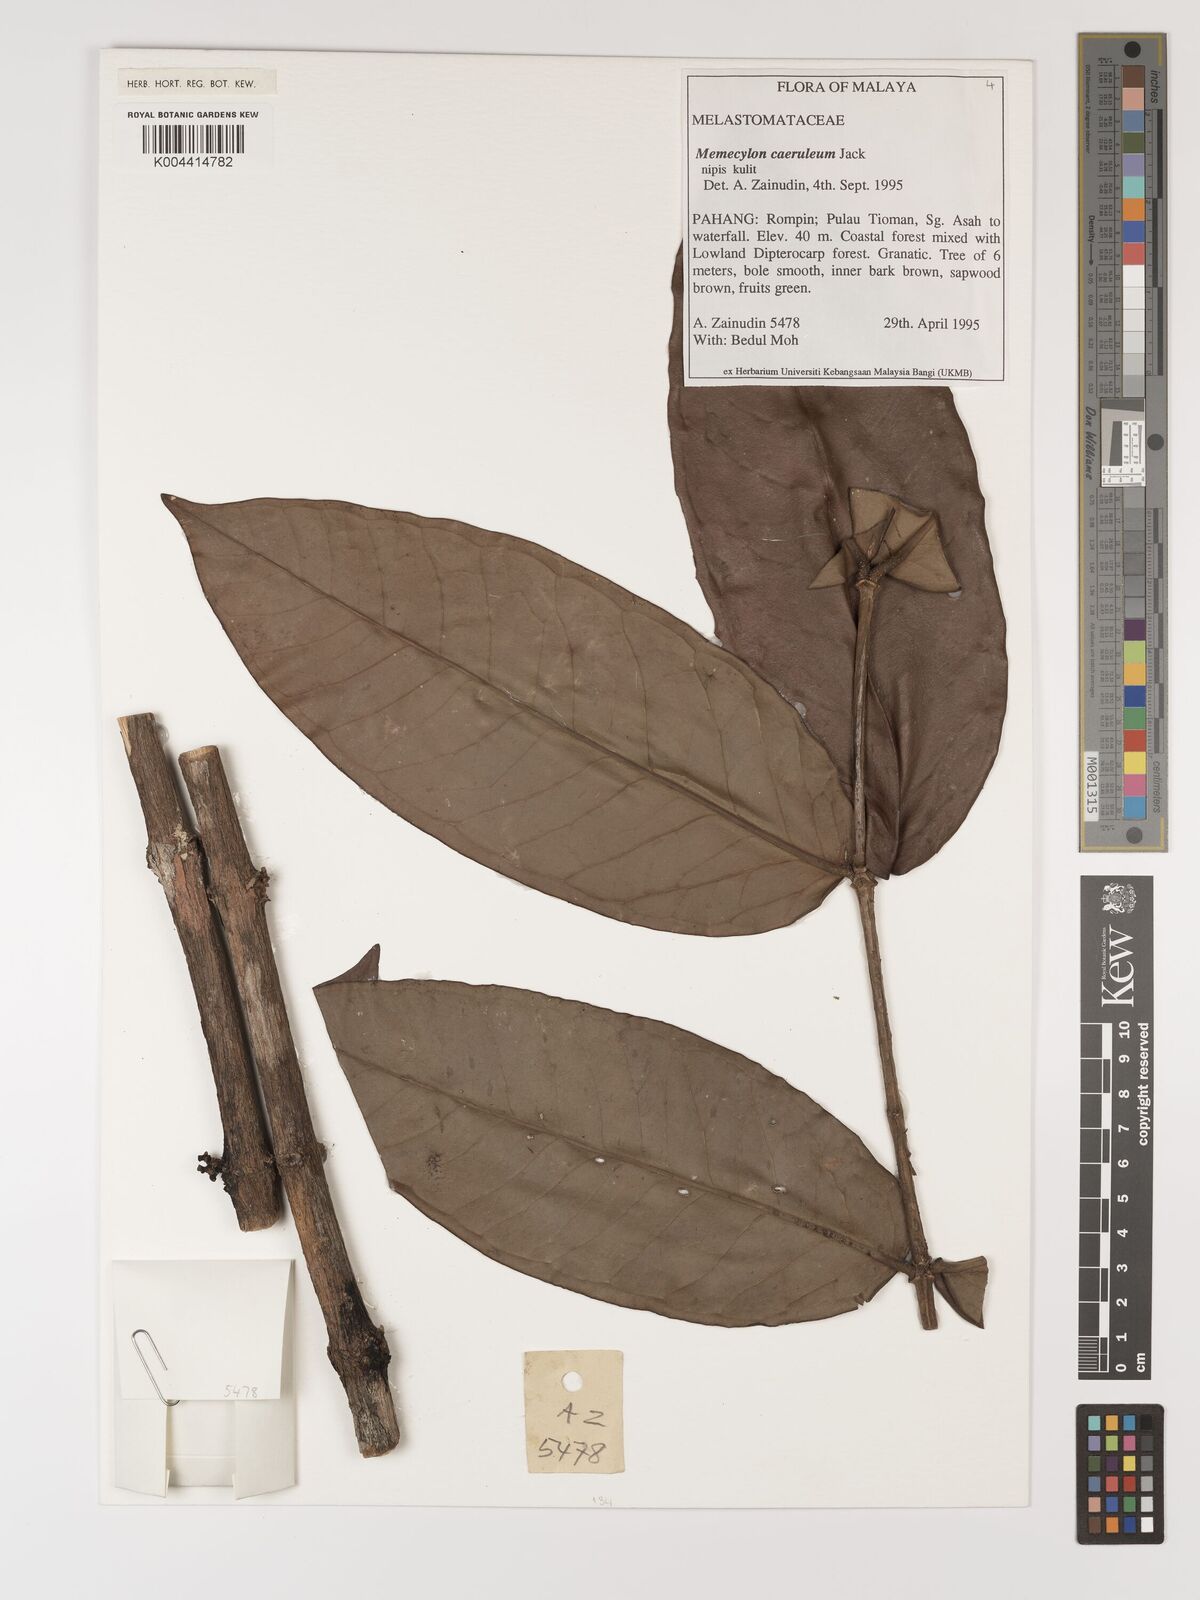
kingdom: Plantae
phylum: Tracheophyta
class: Magnoliopsida
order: Myrtales
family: Melastomataceae
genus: Memecylon
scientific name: Memecylon
